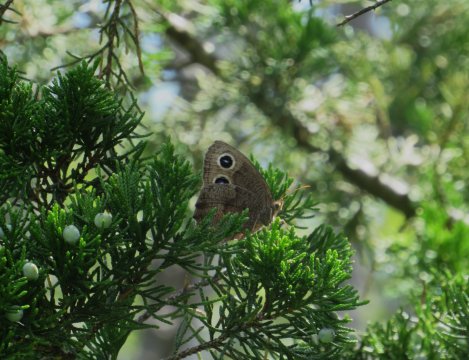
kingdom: Animalia
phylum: Arthropoda
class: Insecta
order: Lepidoptera
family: Nymphalidae
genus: Cercyonis
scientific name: Cercyonis pegala
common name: Common Wood-Nymph
